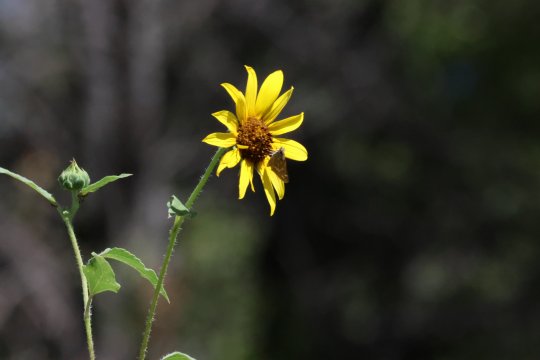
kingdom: Animalia
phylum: Arthropoda
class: Insecta
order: Lepidoptera
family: Hesperiidae
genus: Atalopedes
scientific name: Atalopedes campestris
